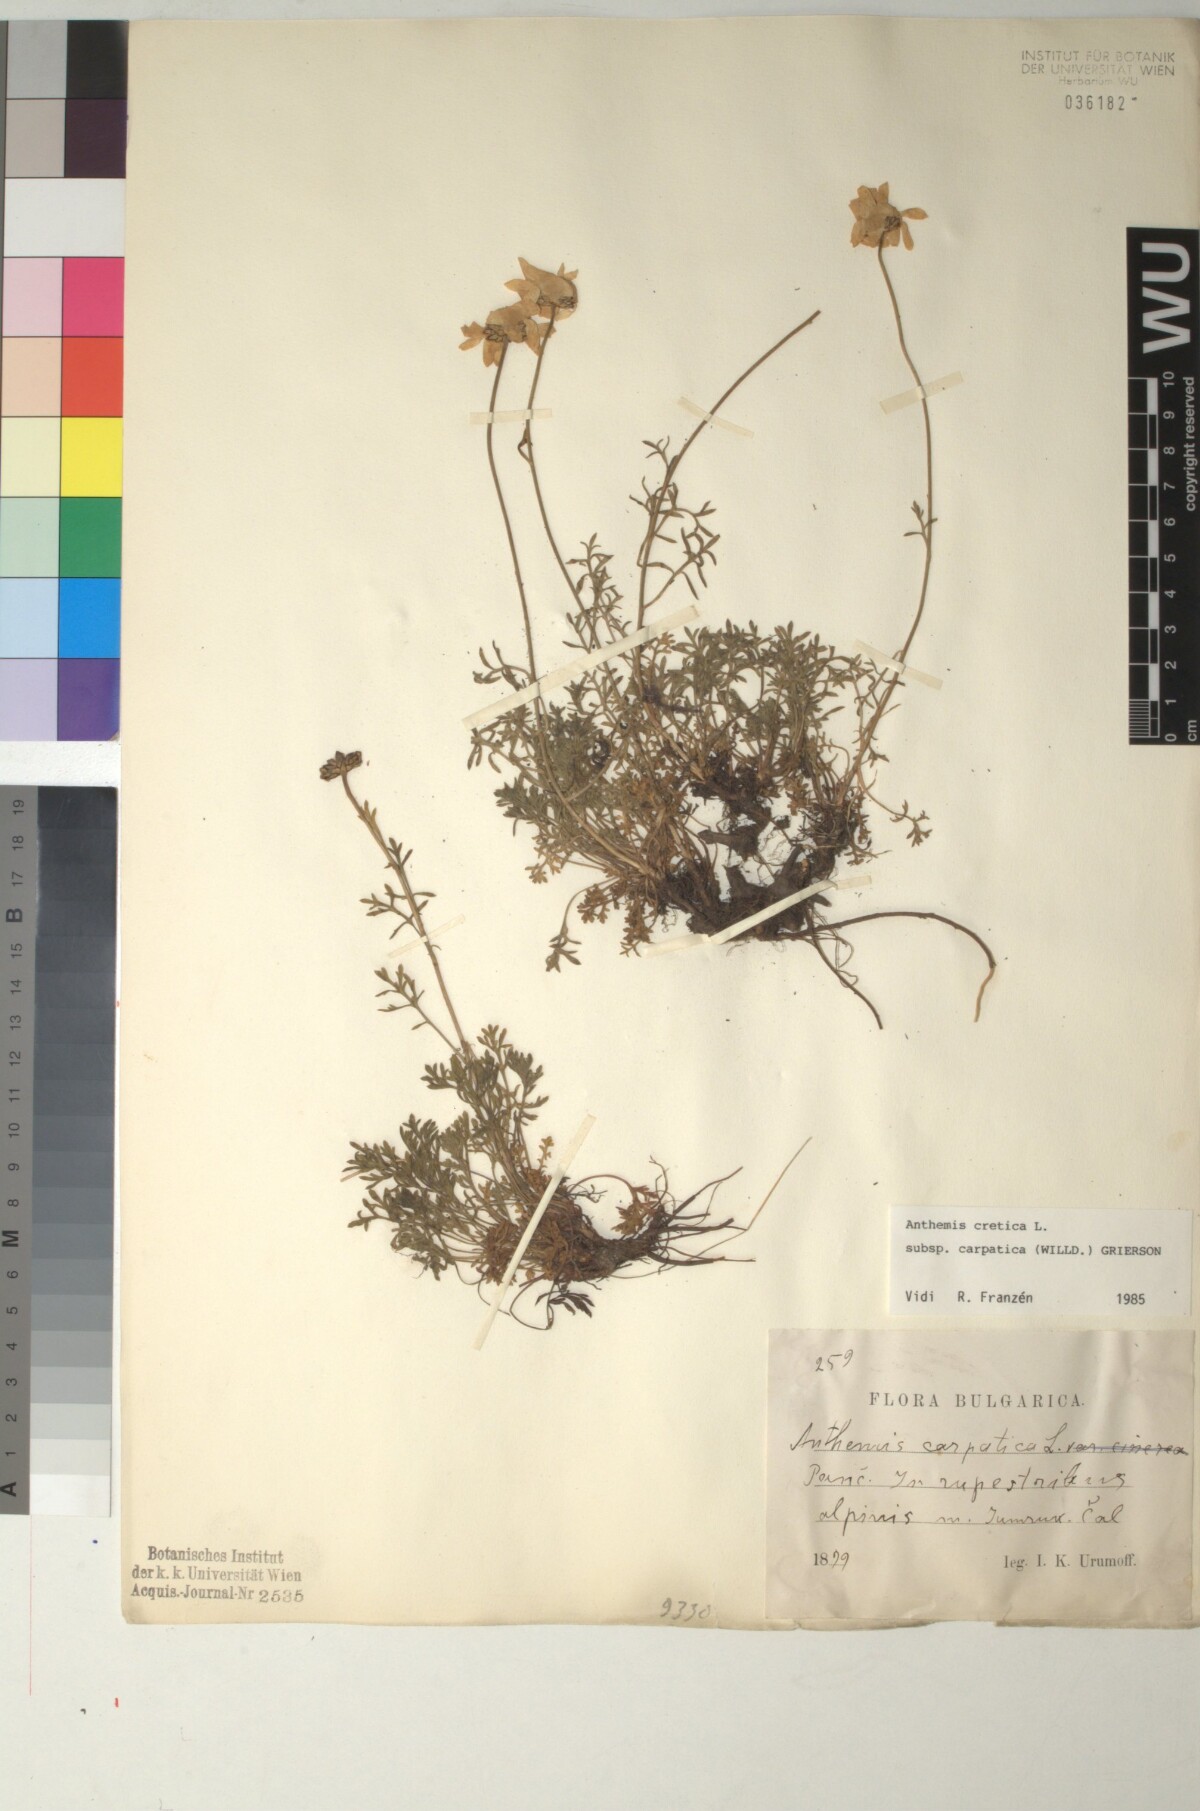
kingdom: Plantae
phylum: Tracheophyta
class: Magnoliopsida
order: Asterales
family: Asteraceae
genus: Anthemis
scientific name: Anthemis cretica
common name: Mountain dog-daisy
